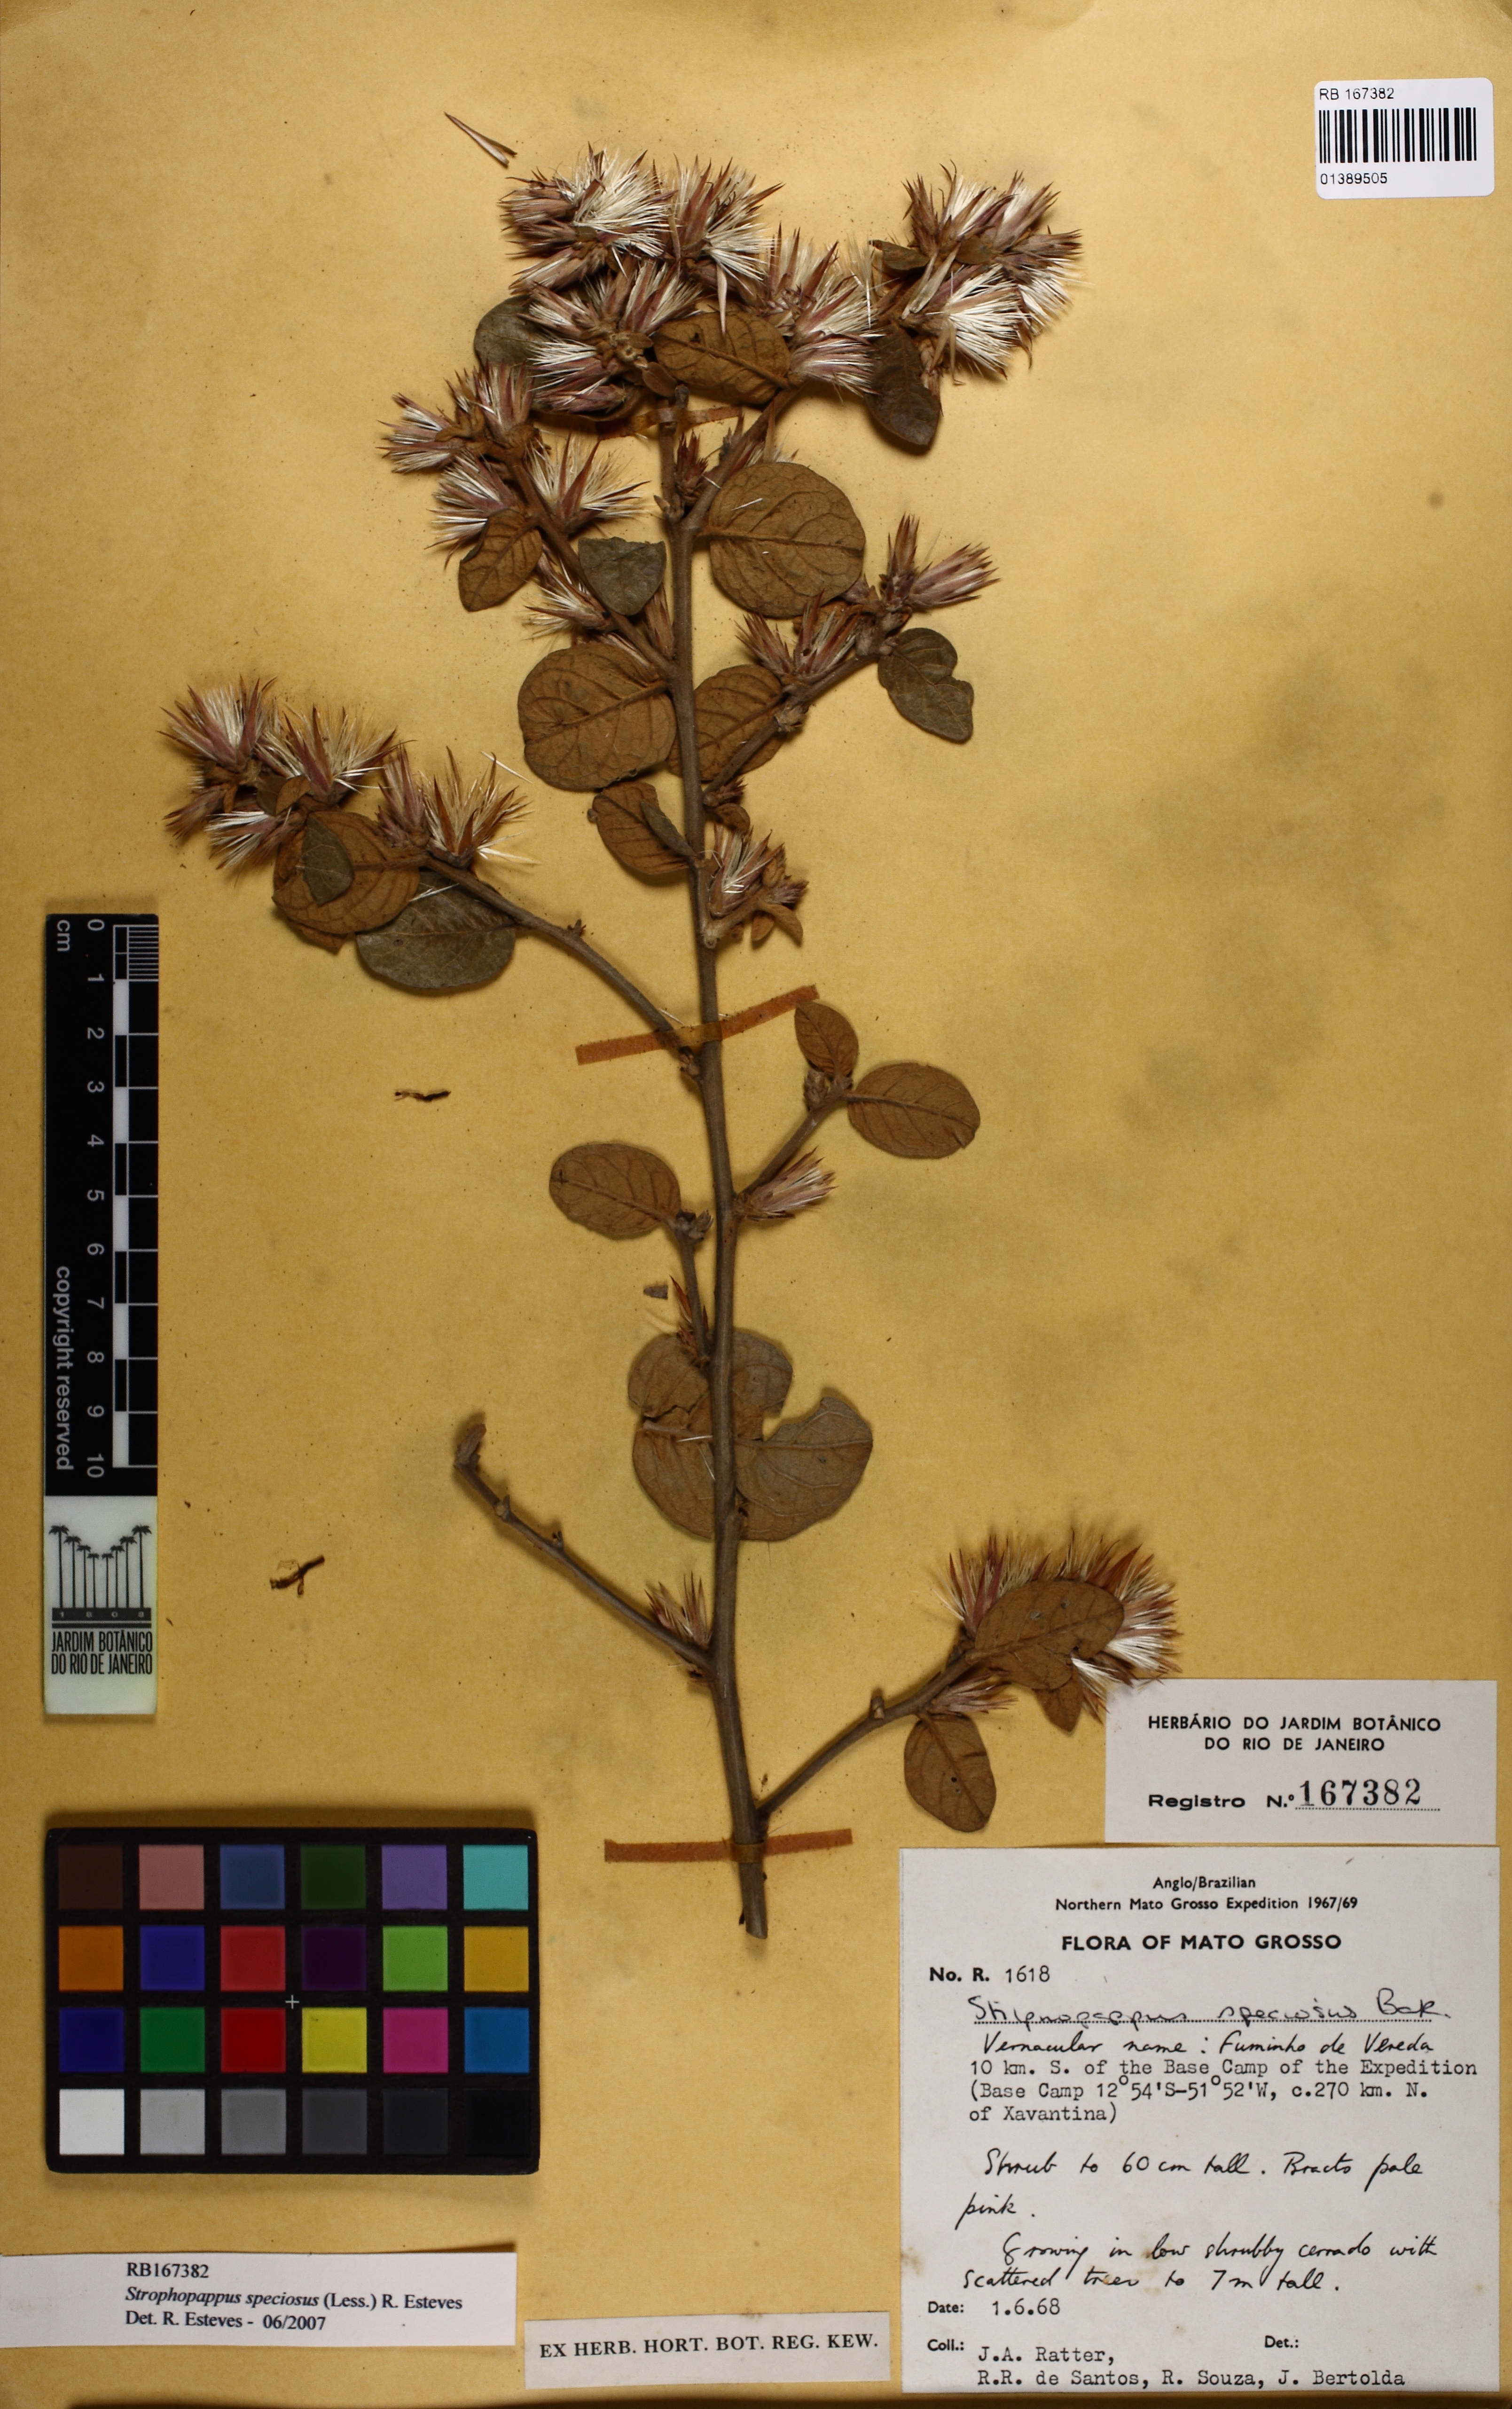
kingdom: Plantae
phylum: Tracheophyta
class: Magnoliopsida
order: Asterales
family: Asteraceae
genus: Stilpnopappus
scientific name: Stilpnopappus speciosus
